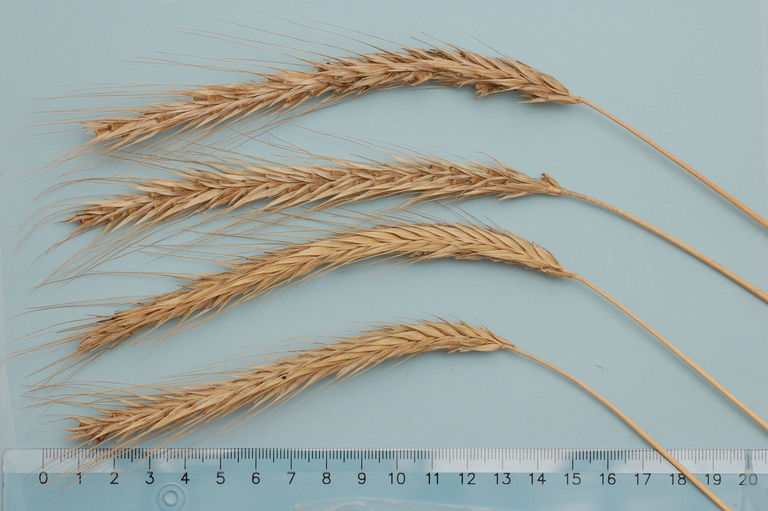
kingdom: Plantae
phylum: Tracheophyta
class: Liliopsida
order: Poales
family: Poaceae
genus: Secale
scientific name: Secale cereale
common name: Rye
